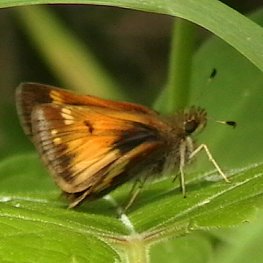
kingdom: Animalia
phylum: Arthropoda
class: Insecta
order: Lepidoptera
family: Hesperiidae
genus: Lon
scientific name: Lon hobomok
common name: Hobomok Skipper
